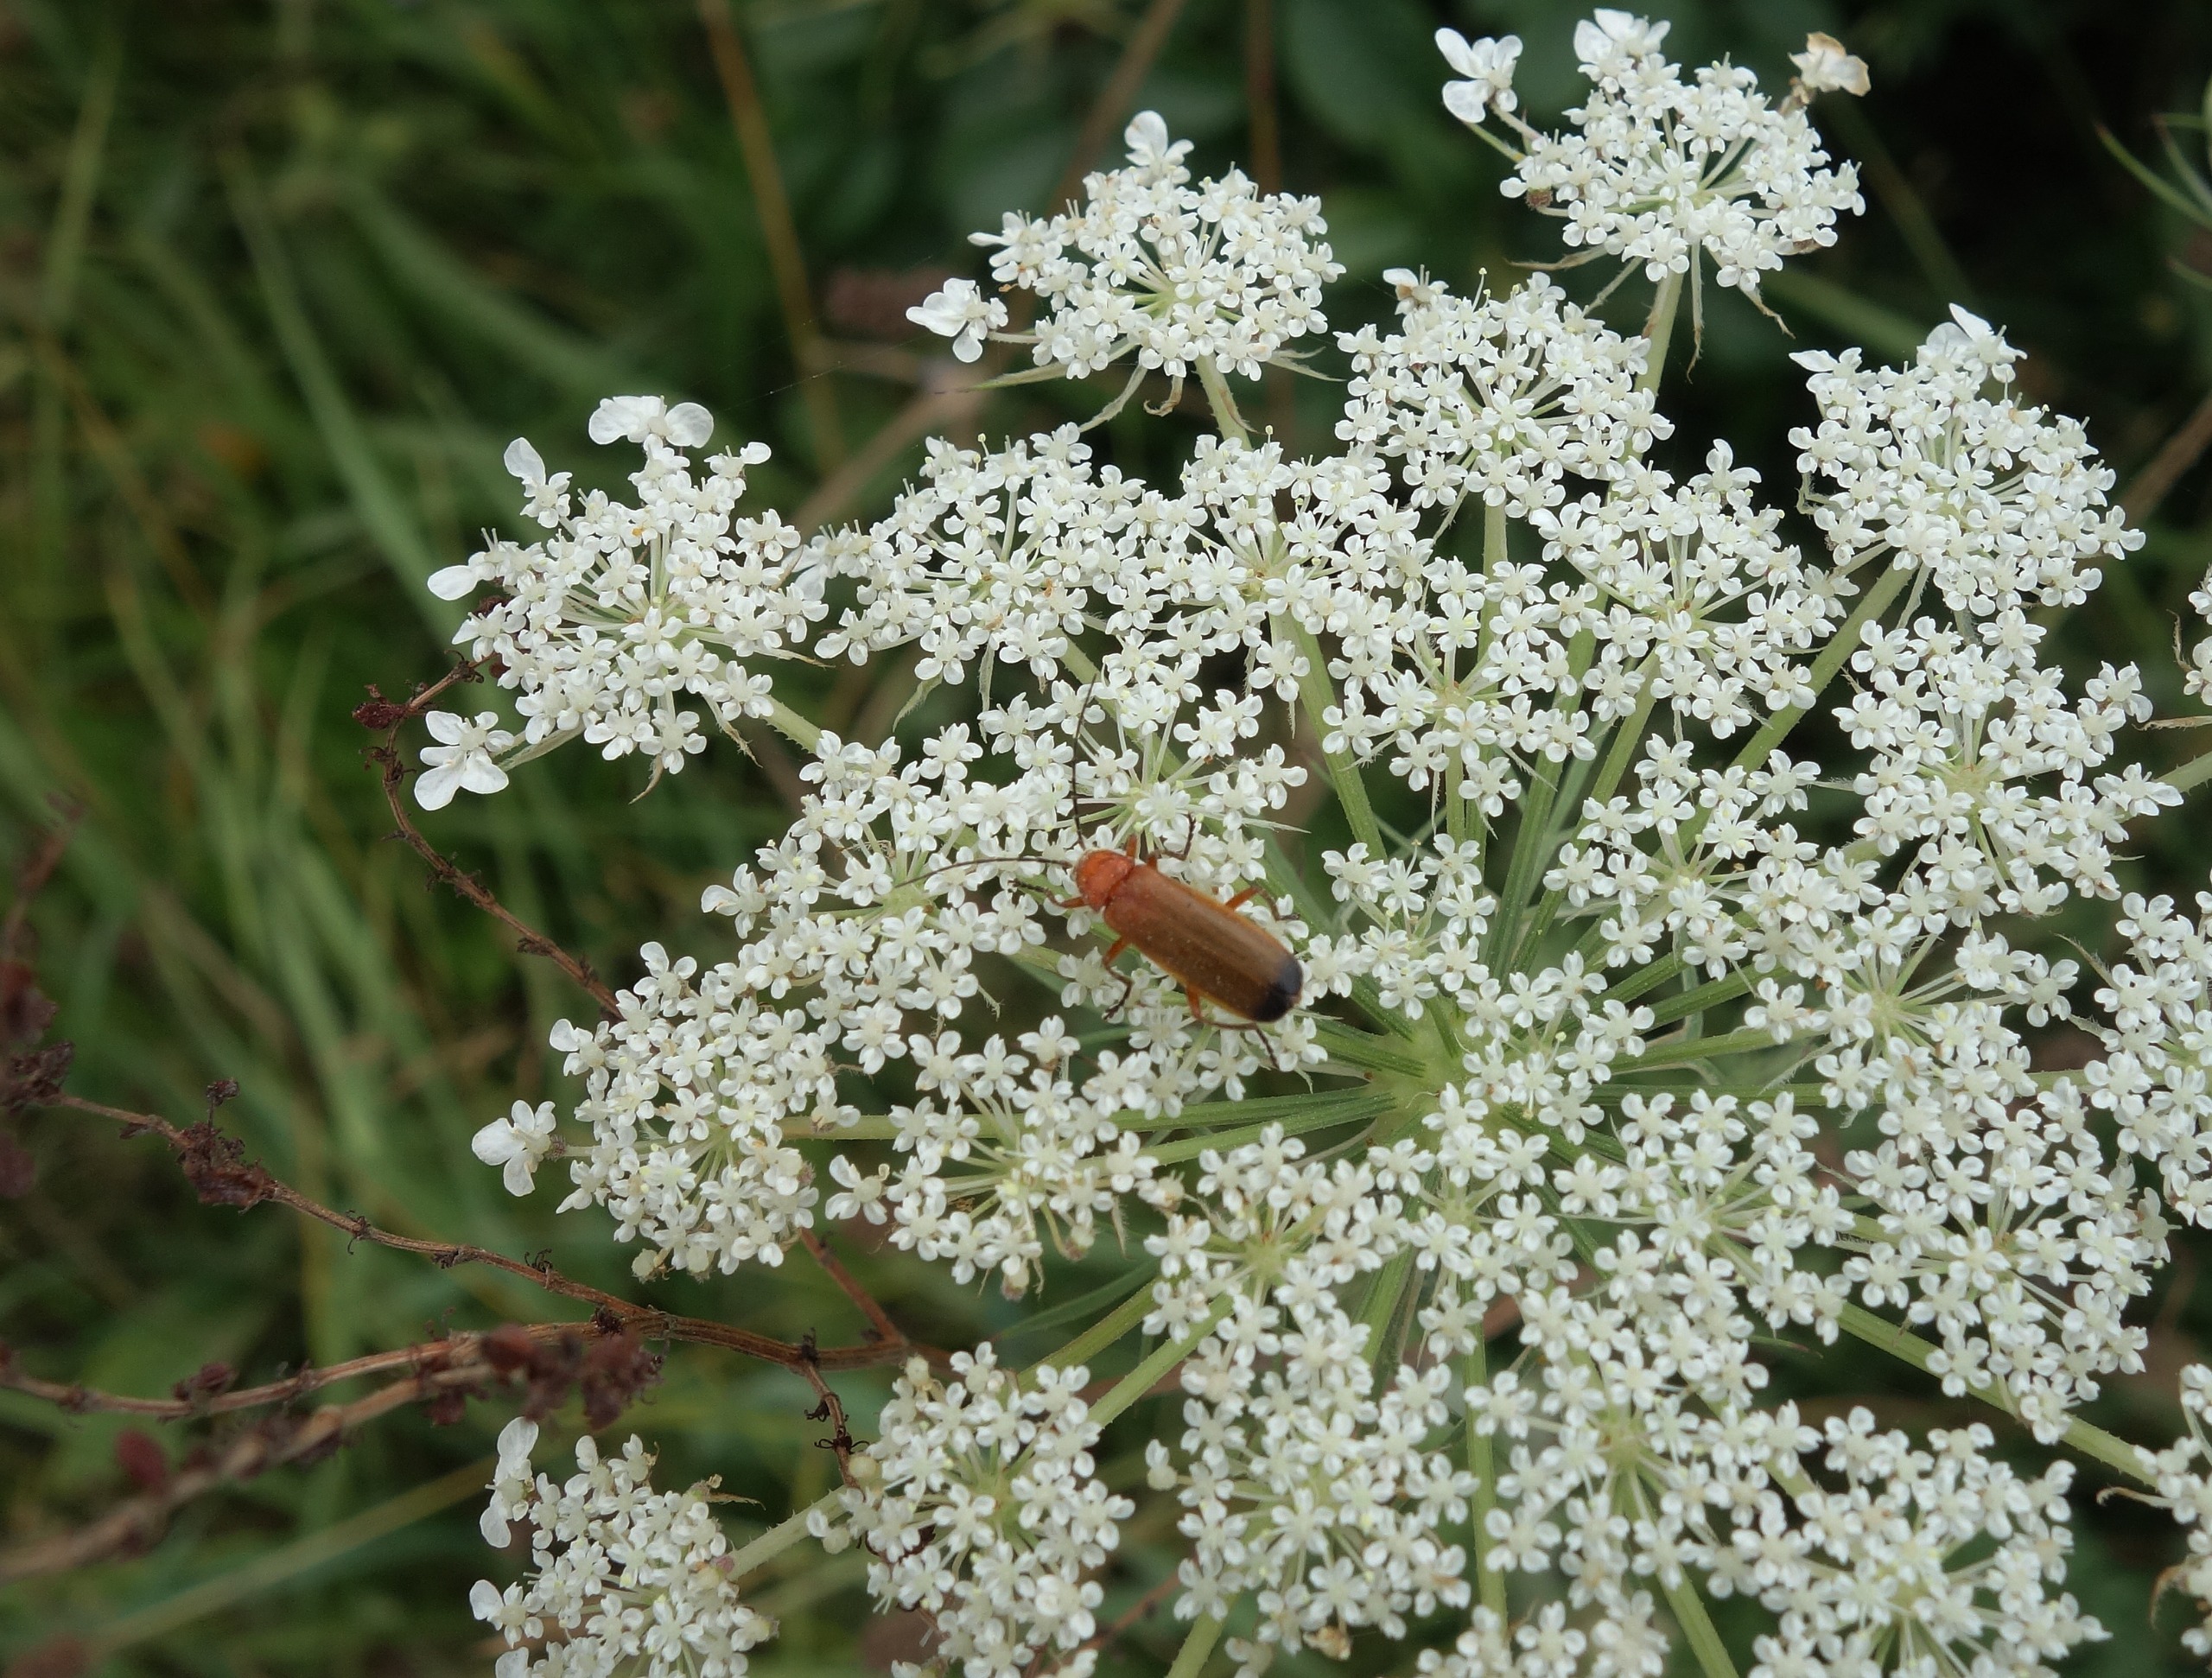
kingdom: Animalia
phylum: Arthropoda
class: Insecta
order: Coleoptera
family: Cantharidae
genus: Rhagonycha
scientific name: Rhagonycha fulva
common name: Præstebille
